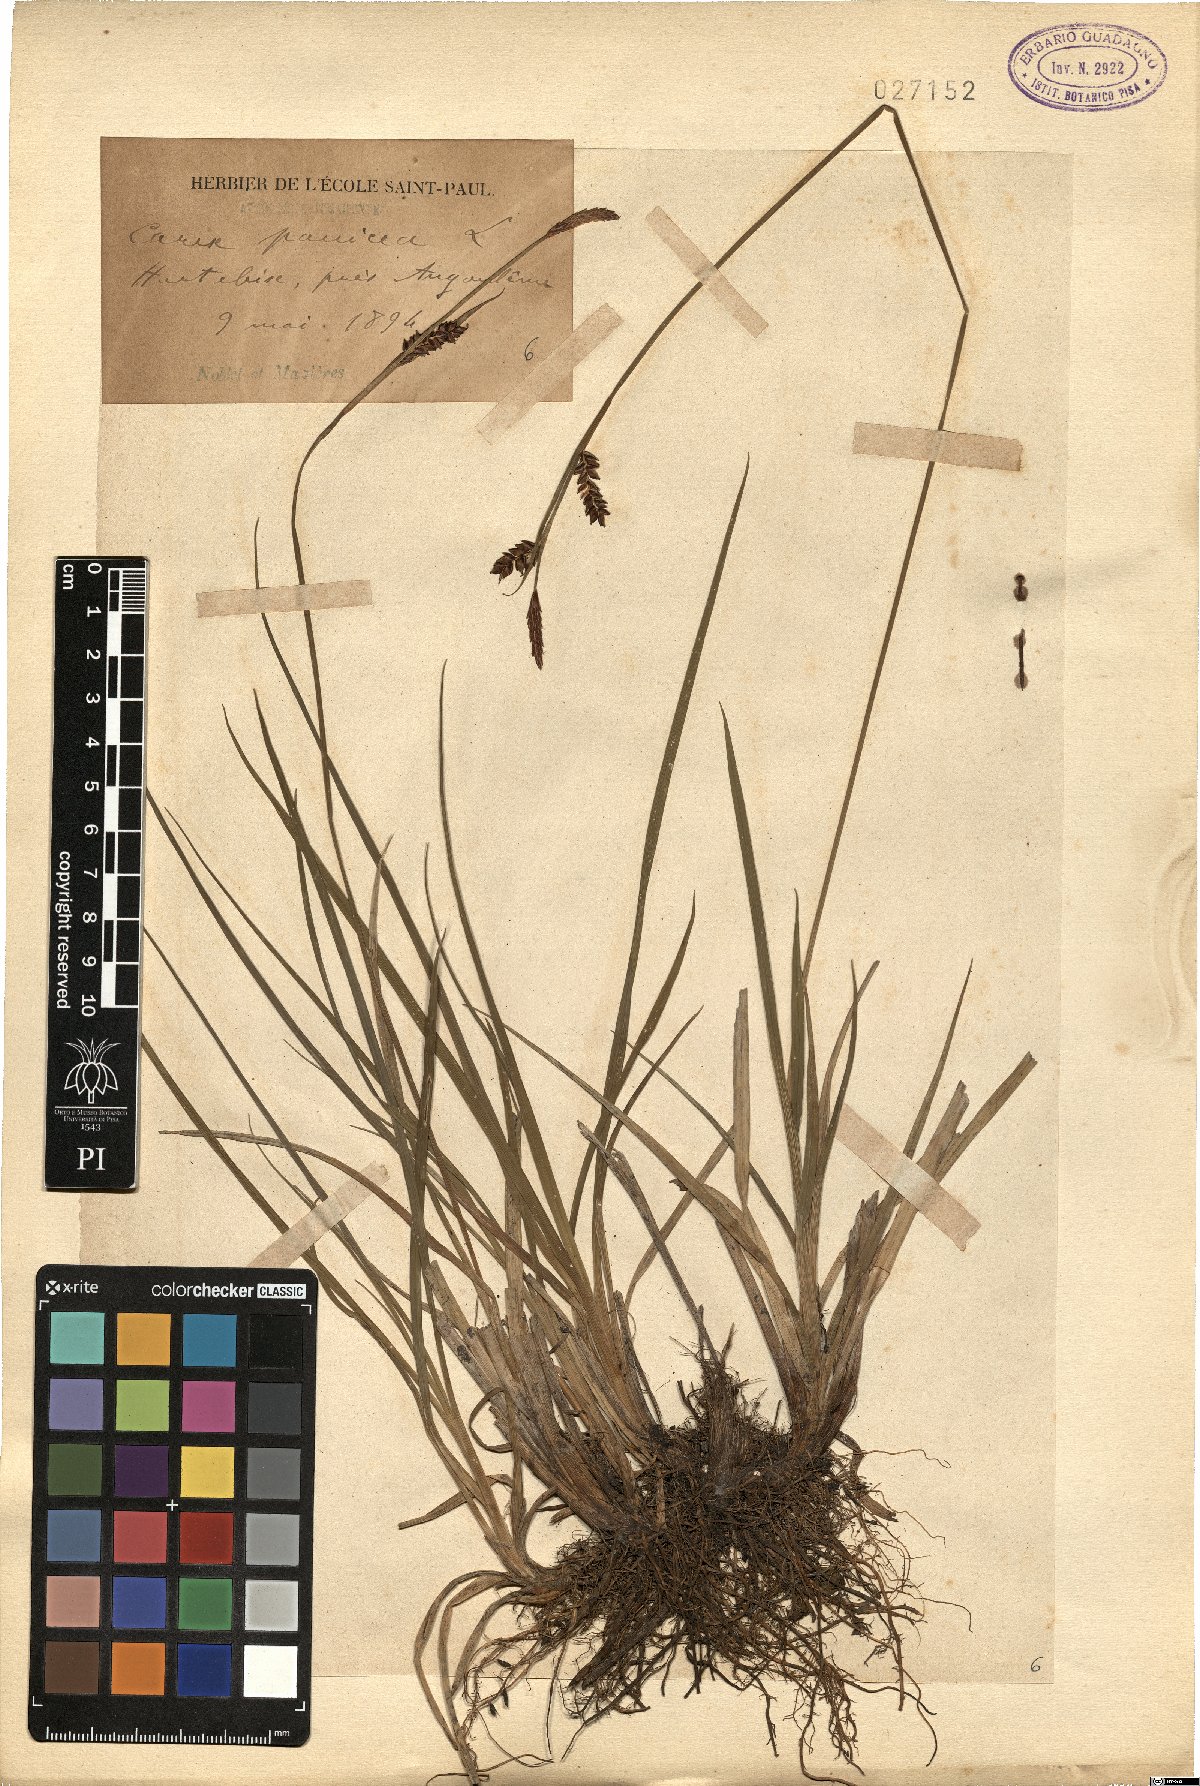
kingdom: Plantae
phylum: Tracheophyta
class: Liliopsida
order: Poales
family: Cyperaceae
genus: Carex
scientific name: Carex panicea
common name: Carnation sedge
